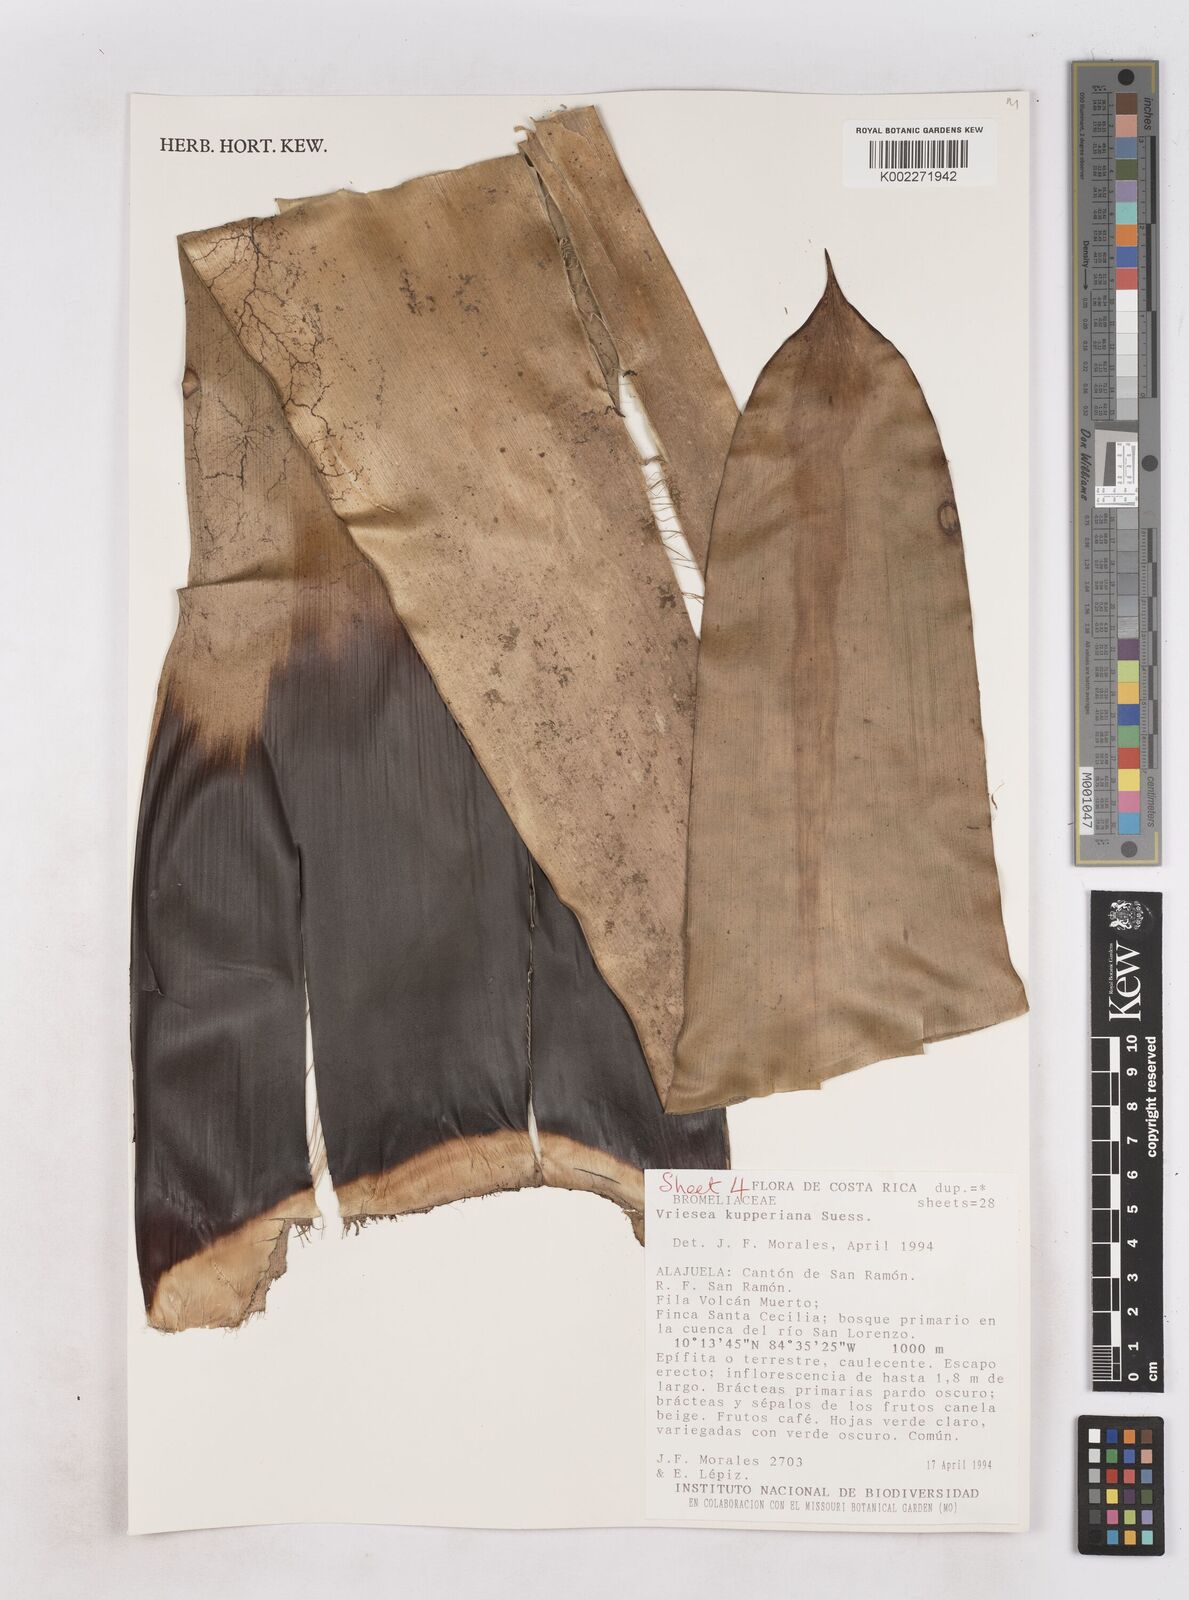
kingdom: Plantae
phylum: Tracheophyta
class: Liliopsida
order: Poales
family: Bromeliaceae
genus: Werauhia
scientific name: Werauhia kupperiana
